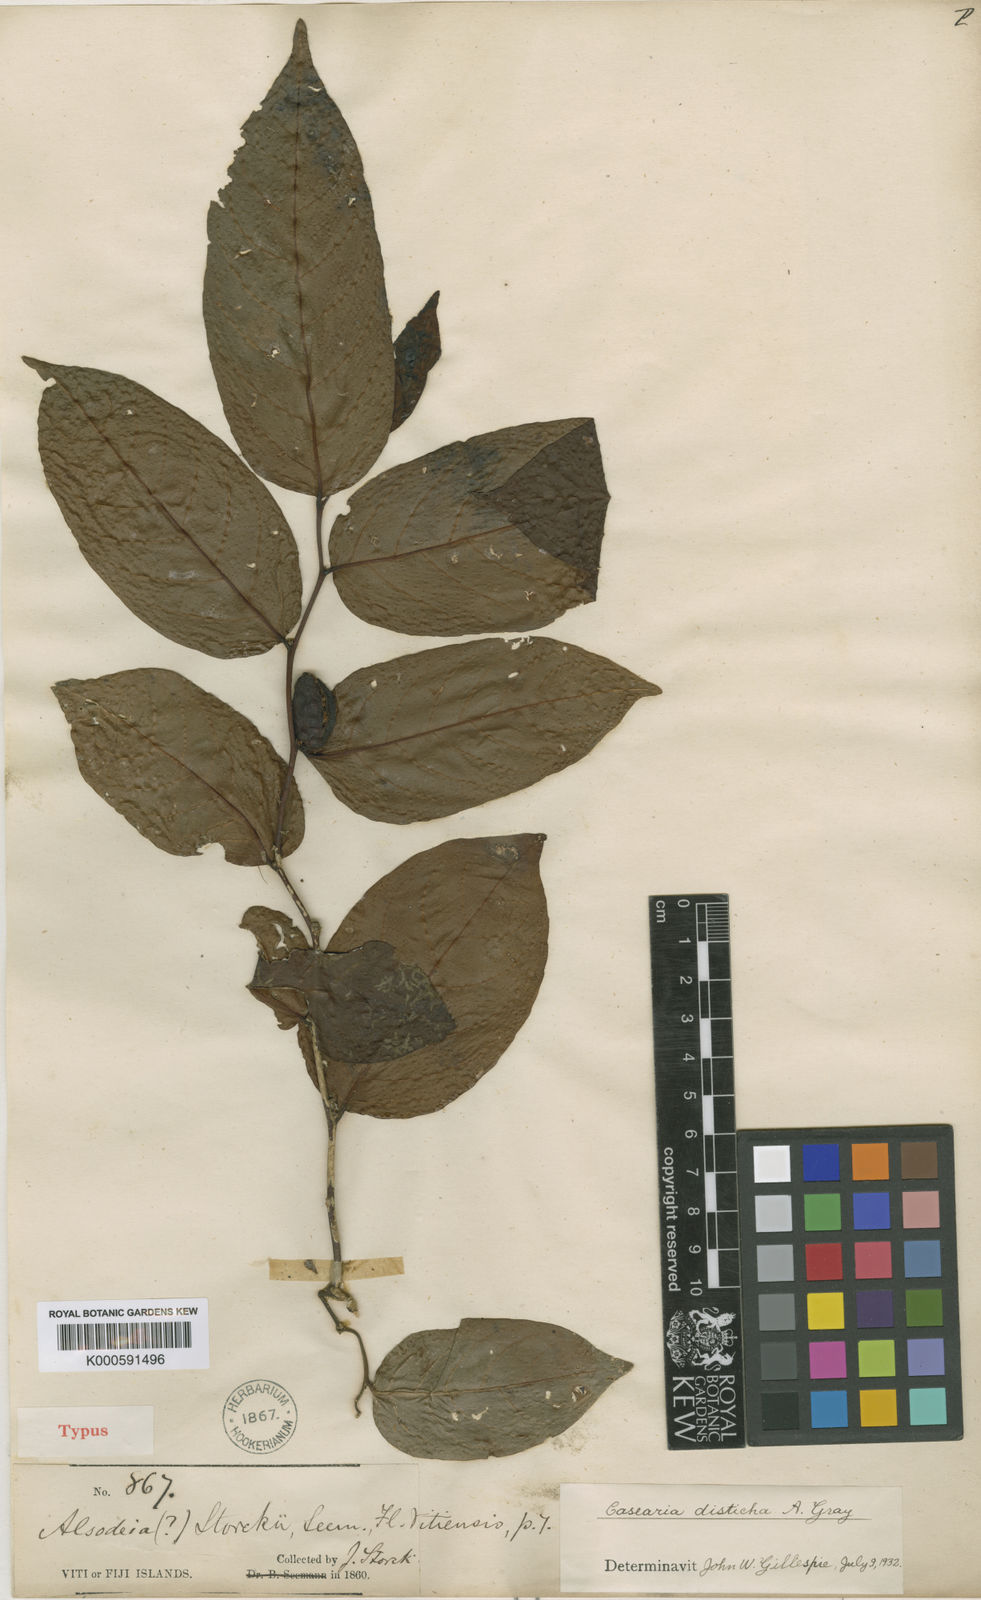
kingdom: Plantae
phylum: Tracheophyta
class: Magnoliopsida
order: Malpighiales
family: Salicaceae
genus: Casearia
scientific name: Casearia richii
